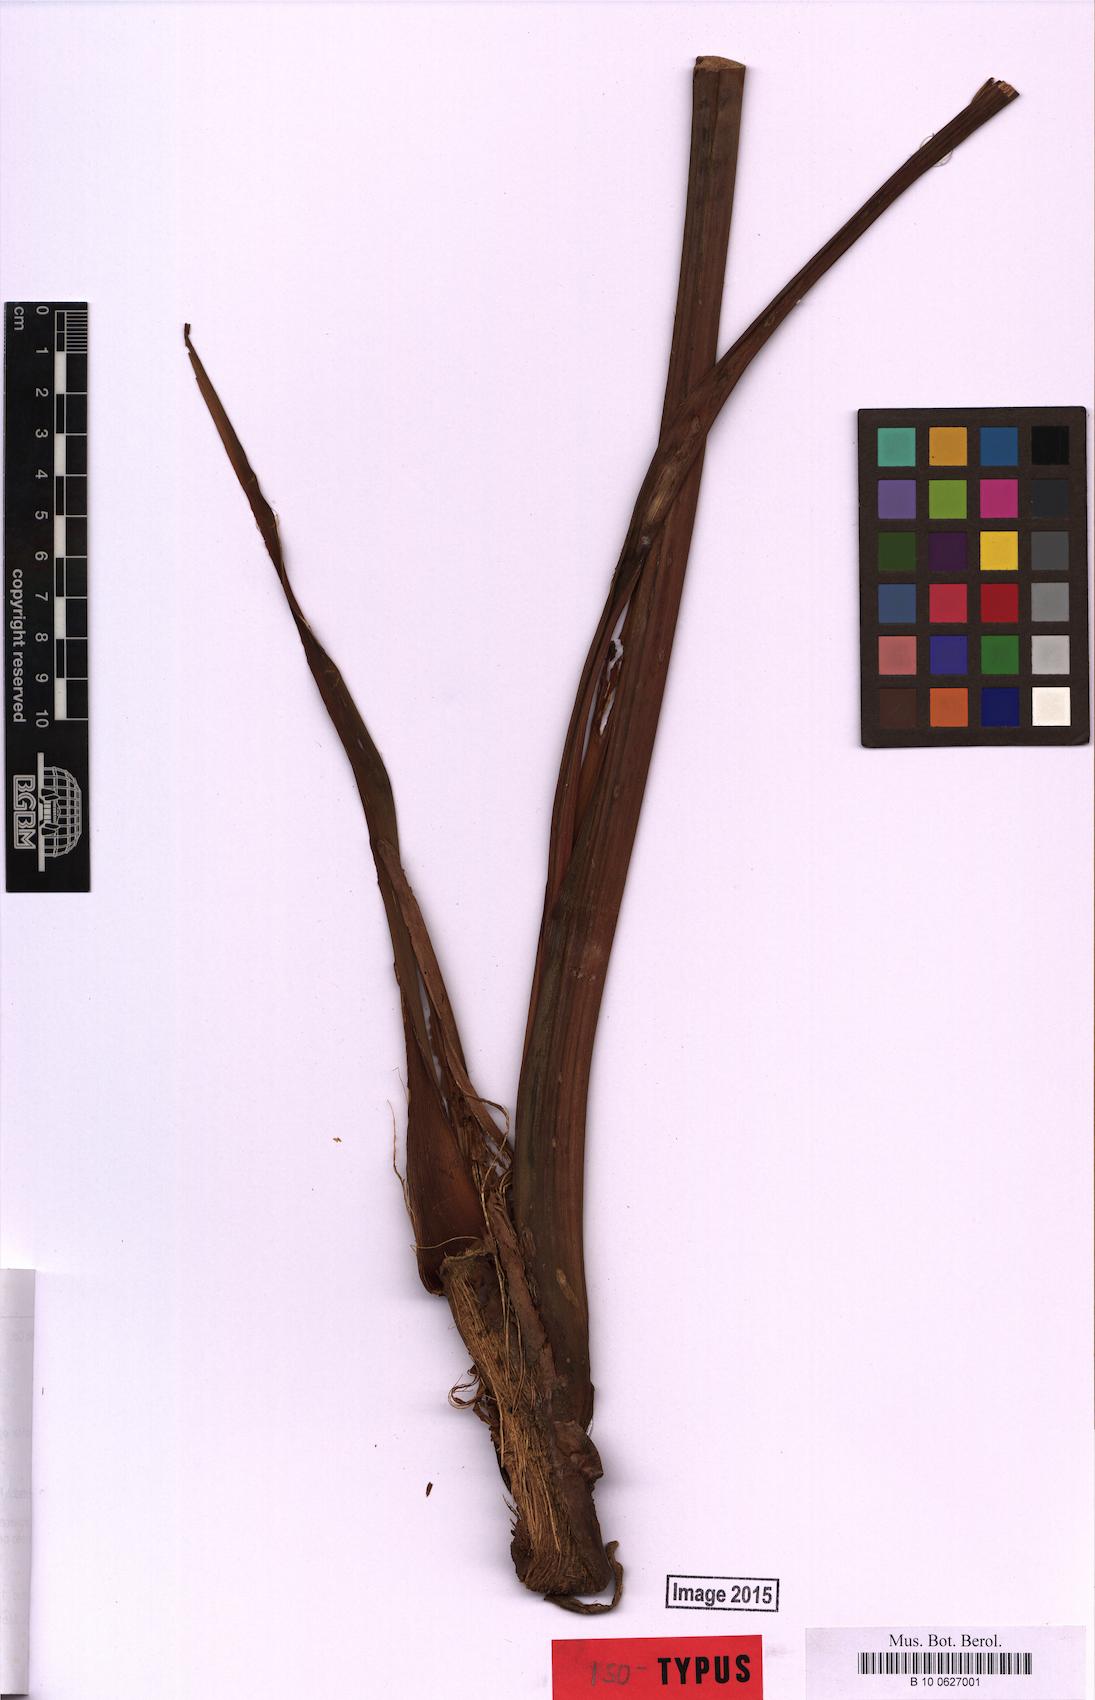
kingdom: Plantae
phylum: Tracheophyta
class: Liliopsida
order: Alismatales
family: Araceae
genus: Anthurium
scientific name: Anthurium merlei
